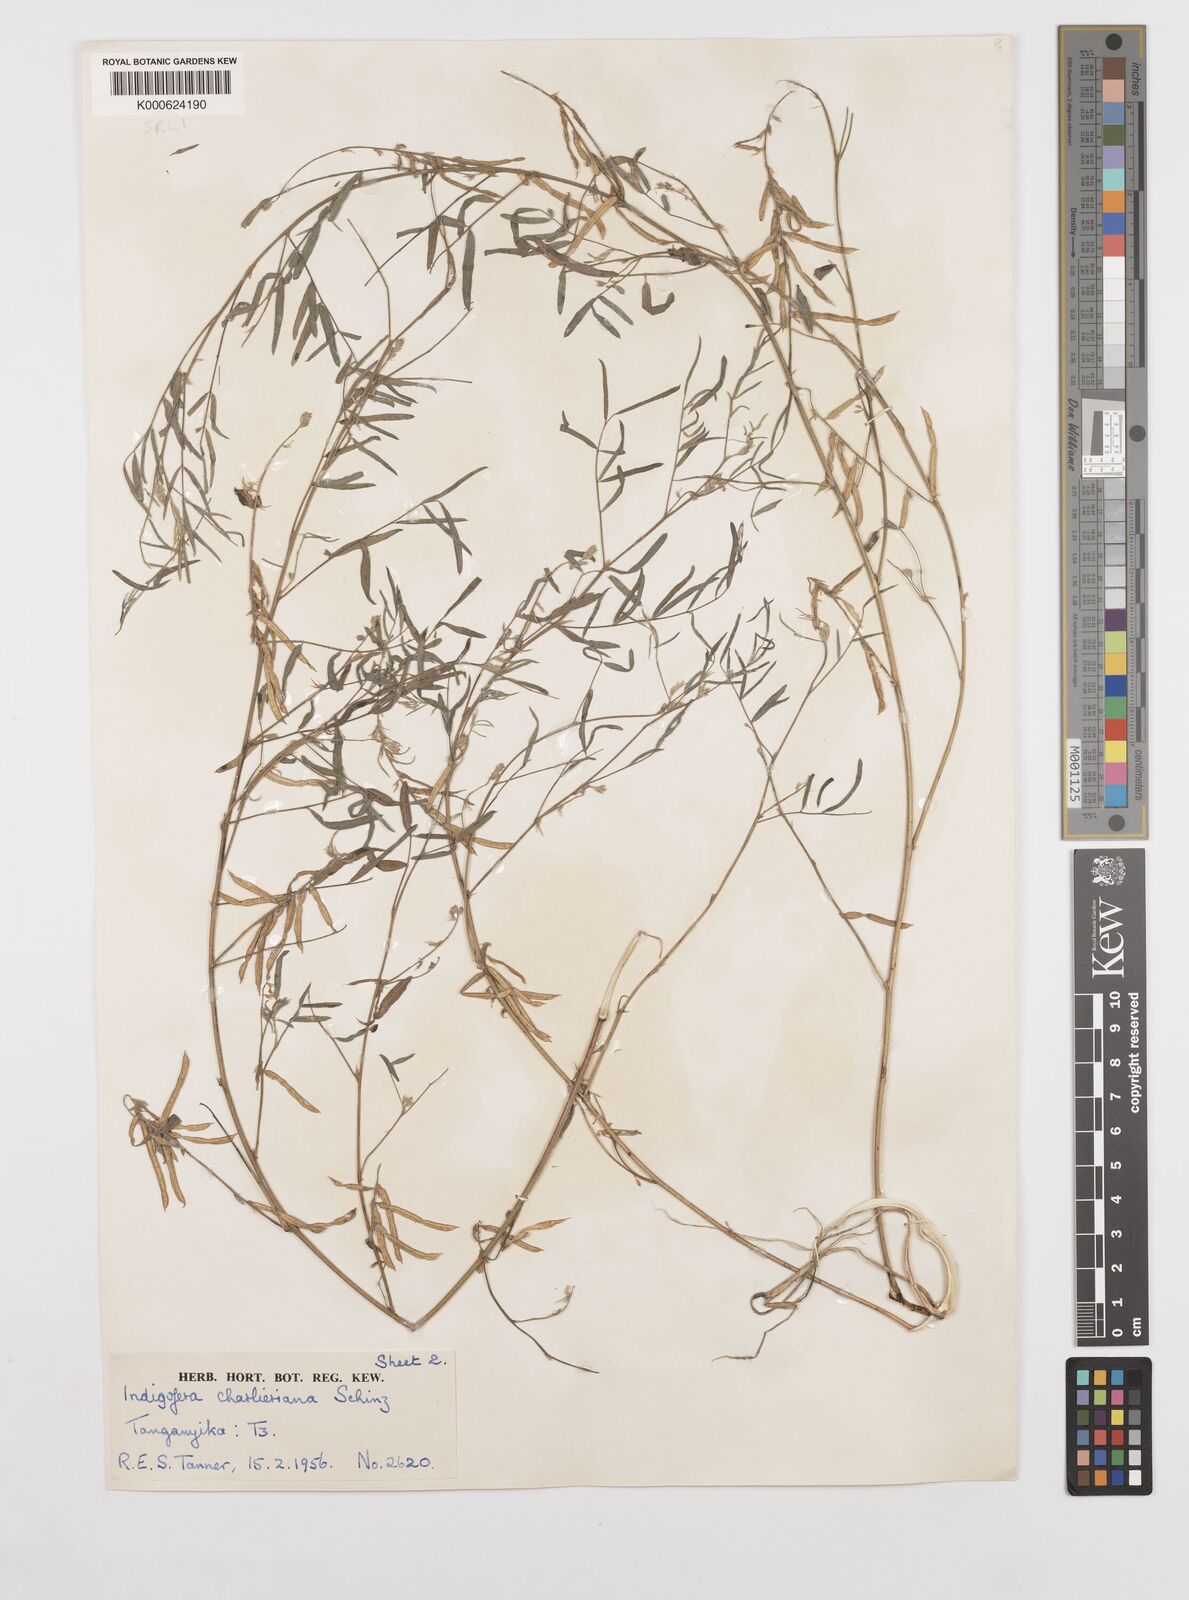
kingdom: Plantae
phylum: Tracheophyta
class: Magnoliopsida
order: Fabales
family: Fabaceae
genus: Indigofera
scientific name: Indigofera charlieriana
